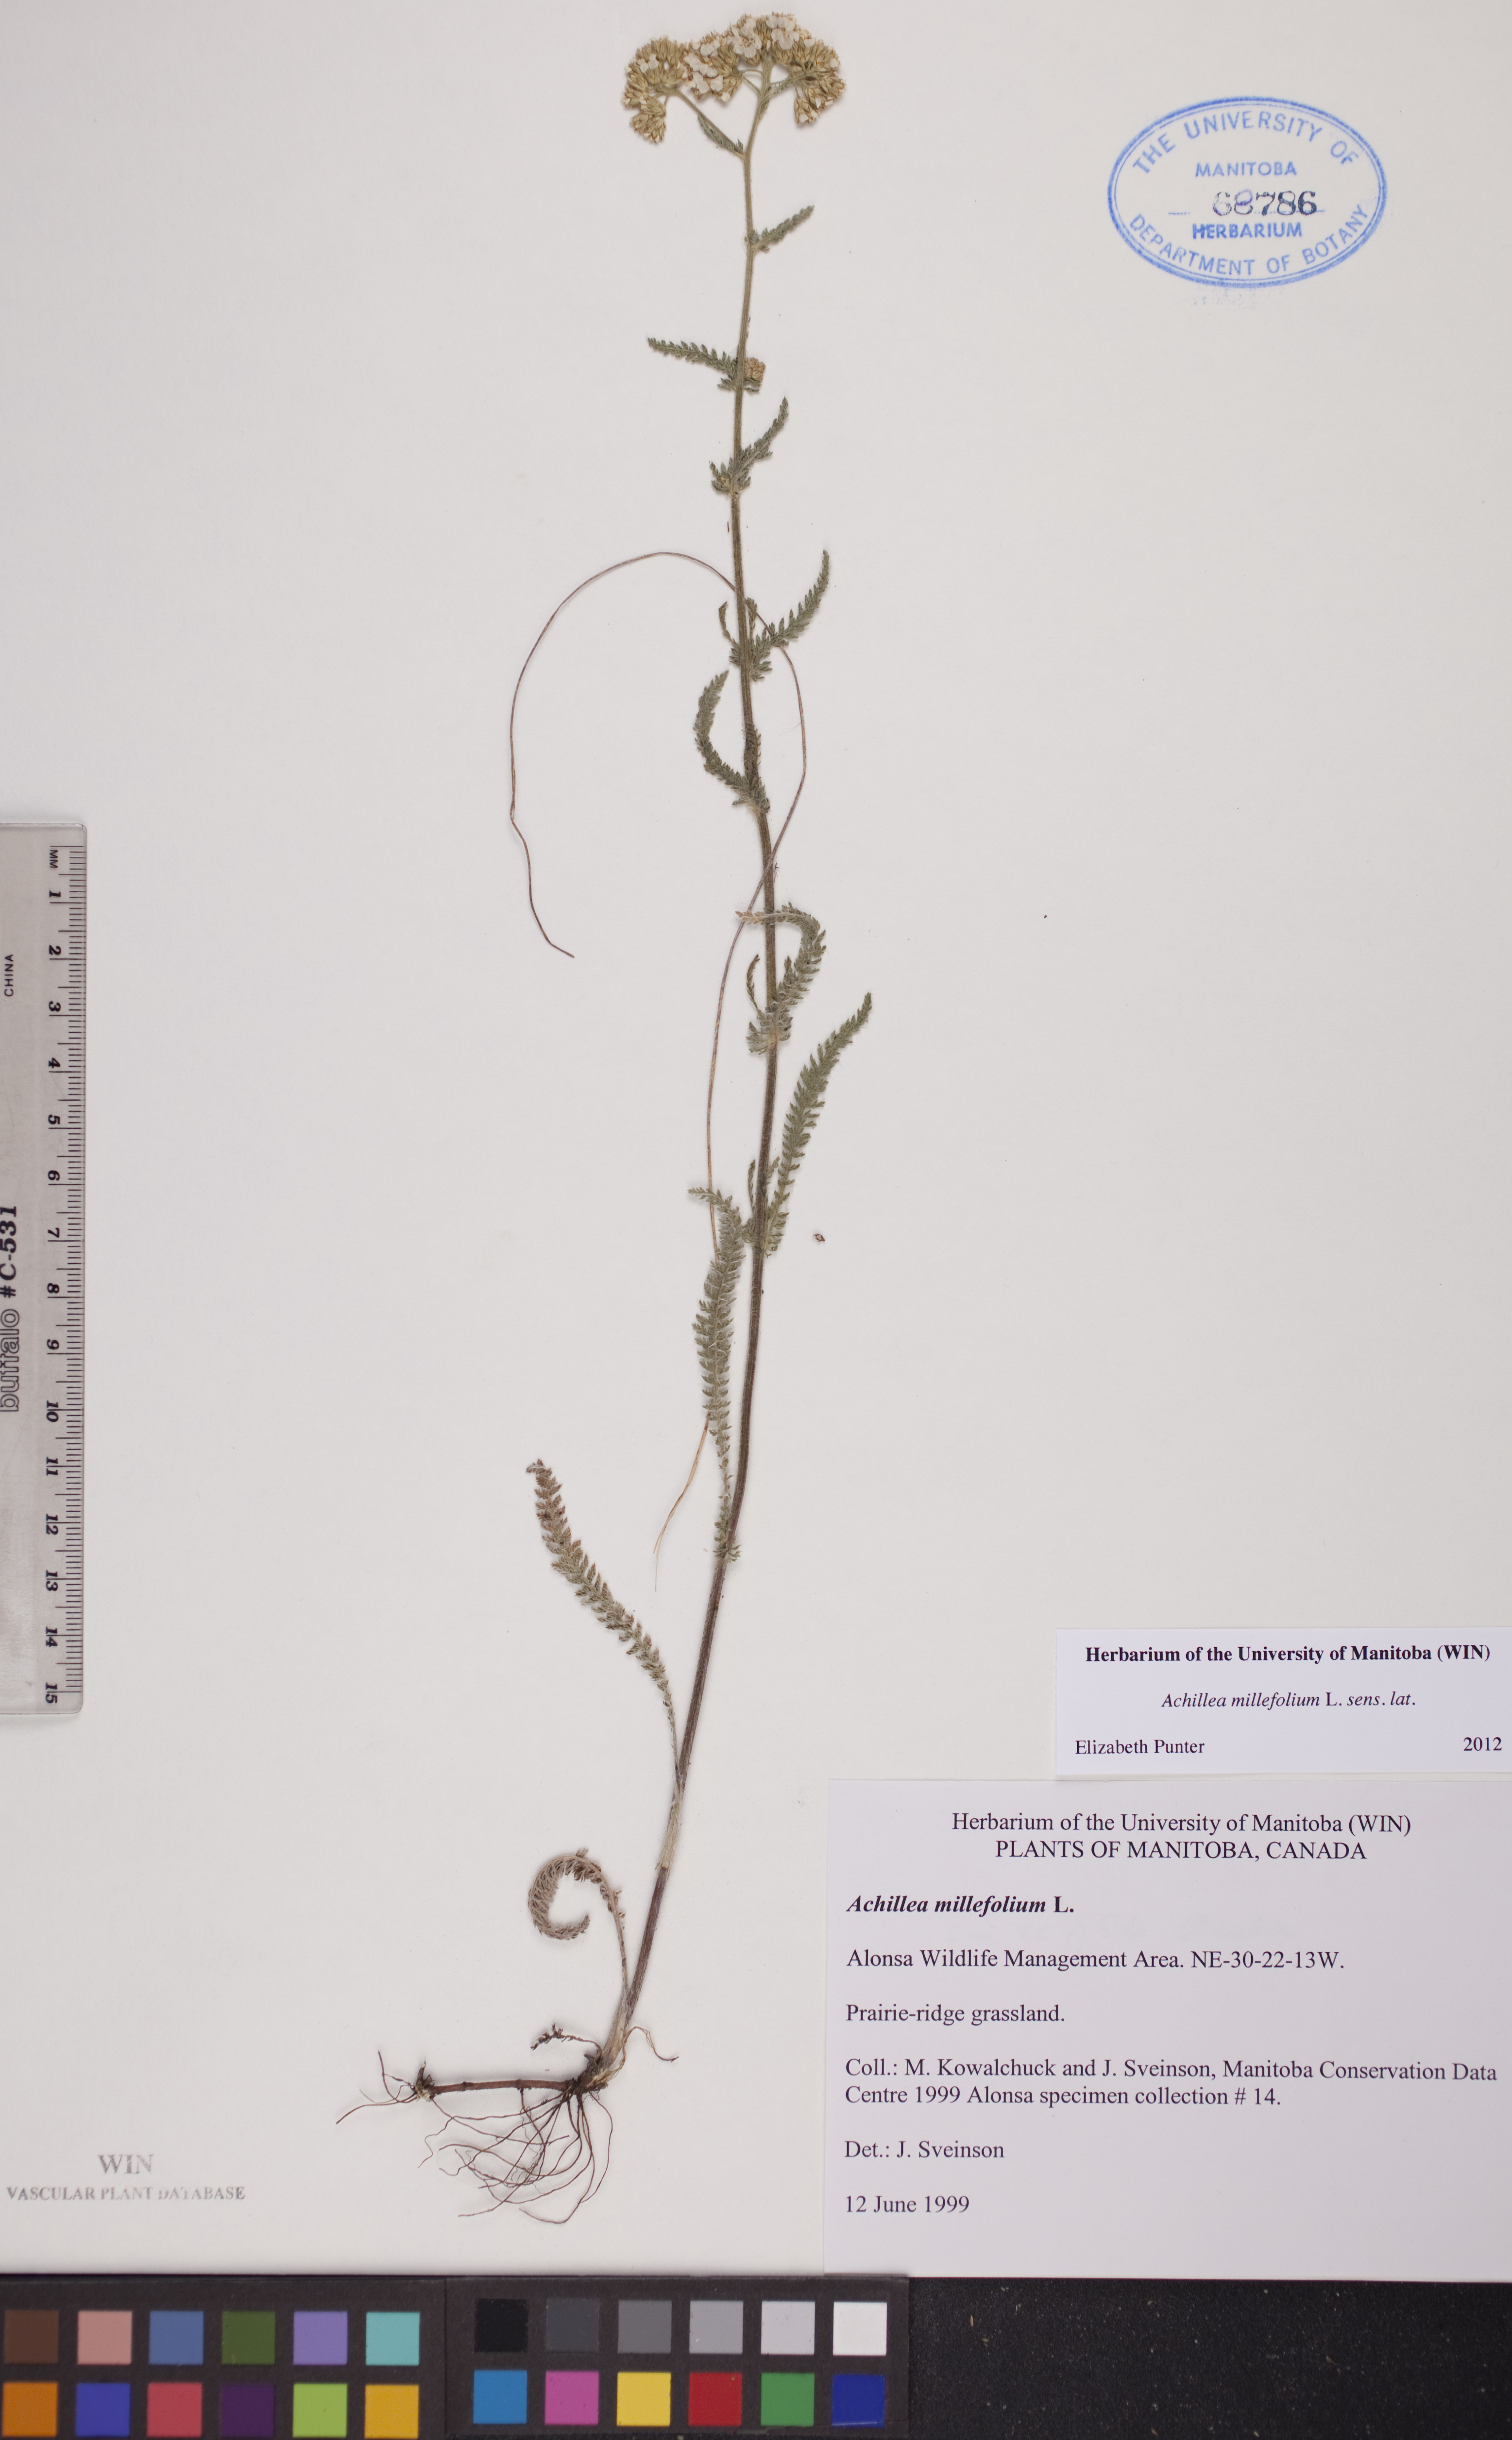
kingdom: Plantae
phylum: Tracheophyta
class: Magnoliopsida
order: Asterales
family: Asteraceae
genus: Achillea
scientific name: Achillea millefolium
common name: Yarrow
